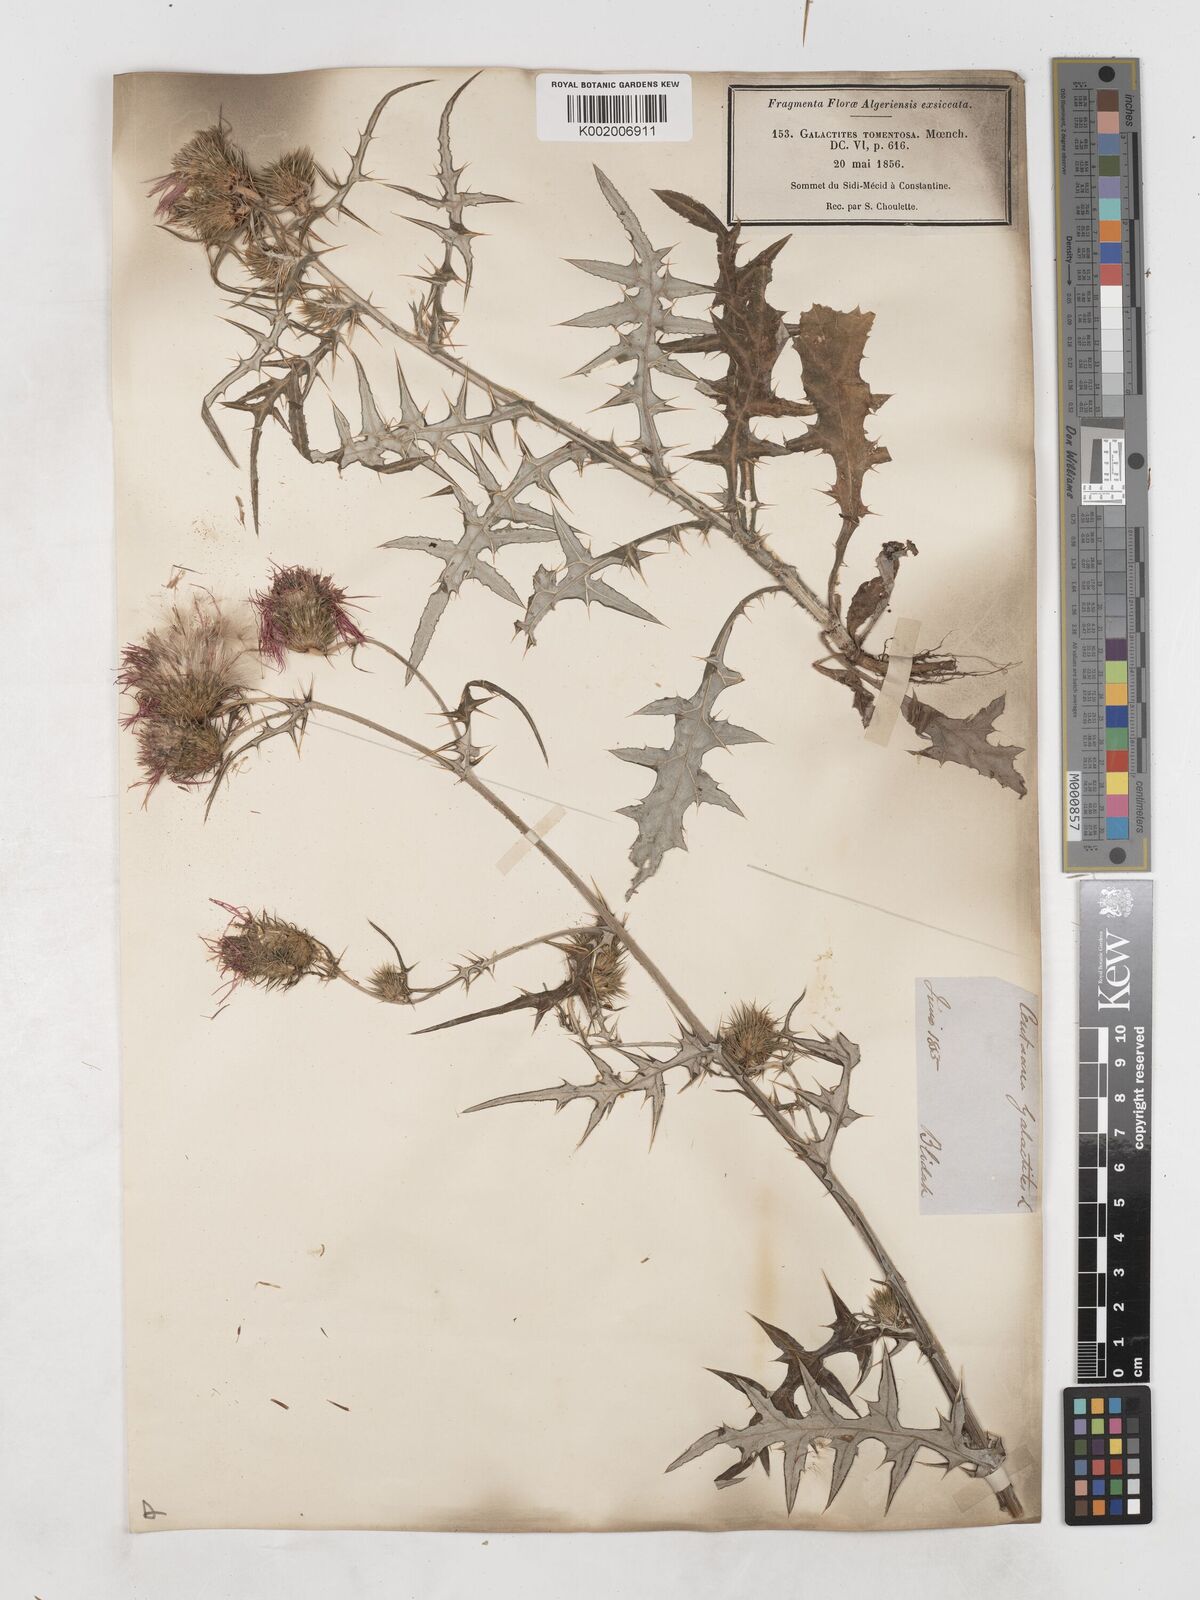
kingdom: Plantae
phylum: Tracheophyta
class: Magnoliopsida
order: Asterales
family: Asteraceae
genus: Galactites
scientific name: Galactites
